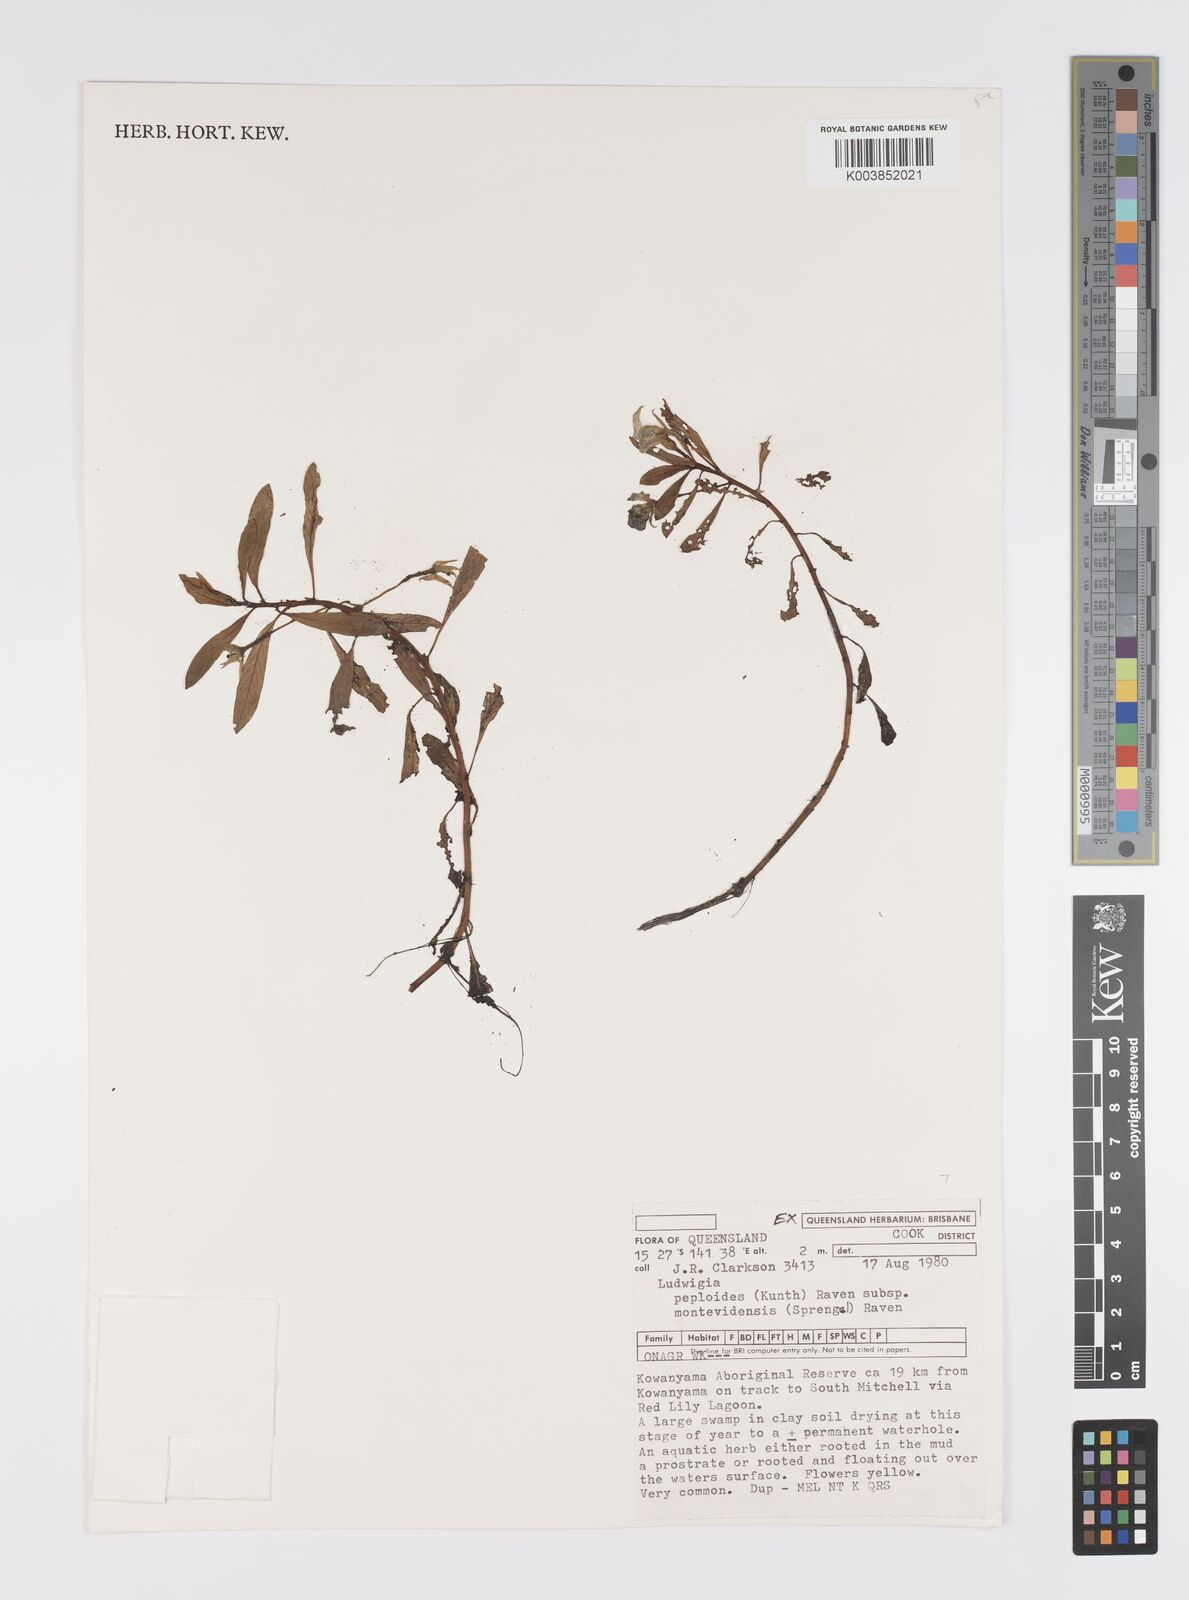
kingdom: Plantae
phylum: Tracheophyta
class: Magnoliopsida
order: Myrtales
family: Onagraceae
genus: Ludwigia
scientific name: Ludwigia peploides
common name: Floating primrose-willow
